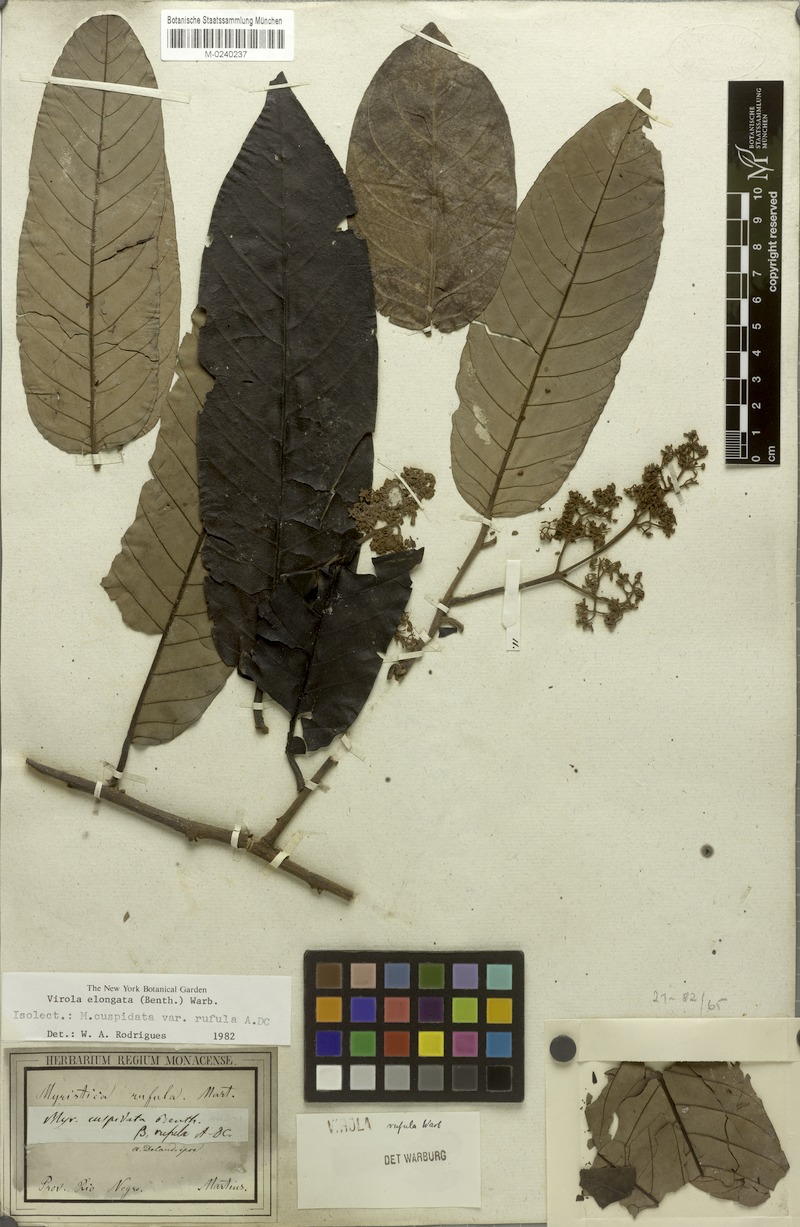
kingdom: Plantae
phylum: Tracheophyta
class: Magnoliopsida
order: Magnoliales
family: Myristicaceae
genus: Virola
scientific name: Virola elongata
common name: Sacred virola
